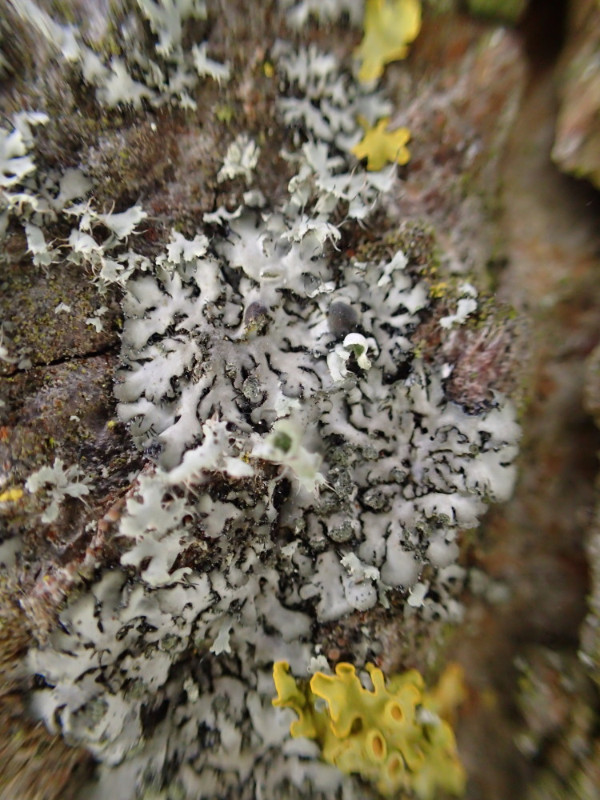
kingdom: Fungi
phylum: Ascomycota
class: Lecanoromycetes
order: Caliciales
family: Physciaceae
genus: Phaeophyscia
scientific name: Phaeophyscia orbicularis
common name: grågrøn rosetlav
